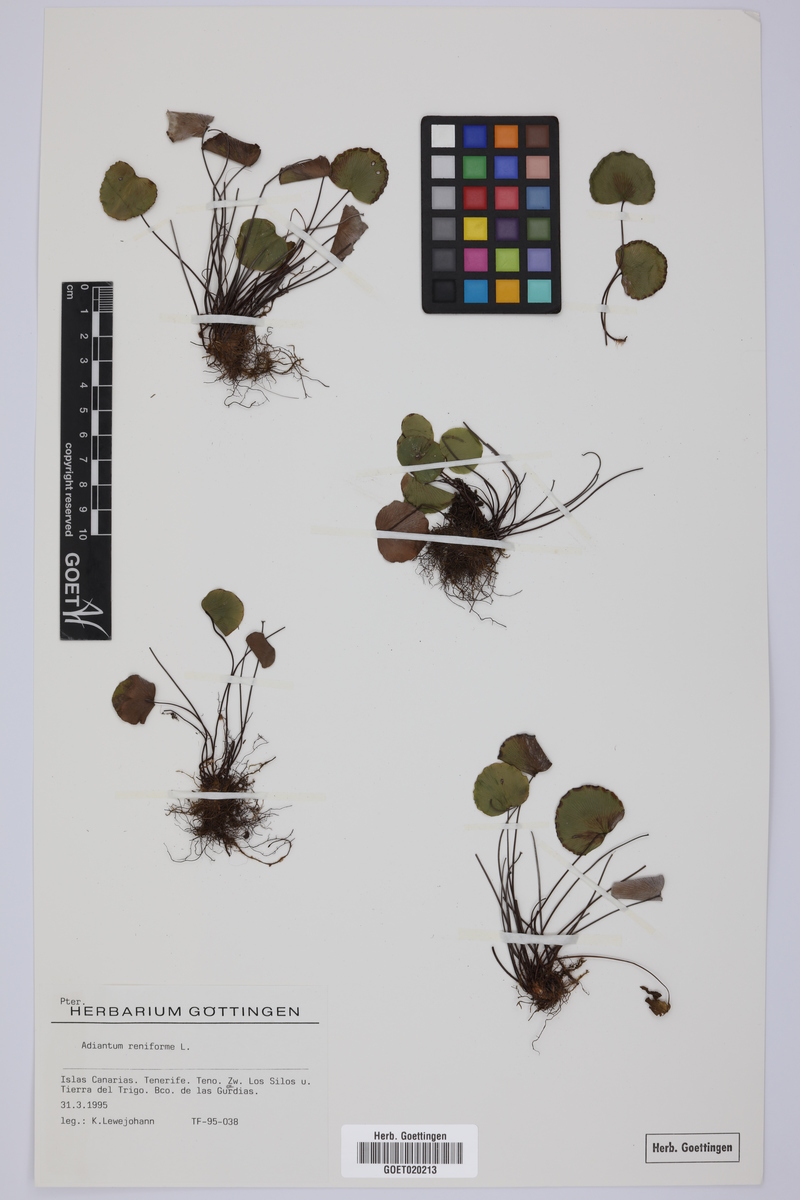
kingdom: Plantae
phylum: Tracheophyta
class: Polypodiopsida
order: Polypodiales
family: Pteridaceae
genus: Adiantum
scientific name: Adiantum reniforme
